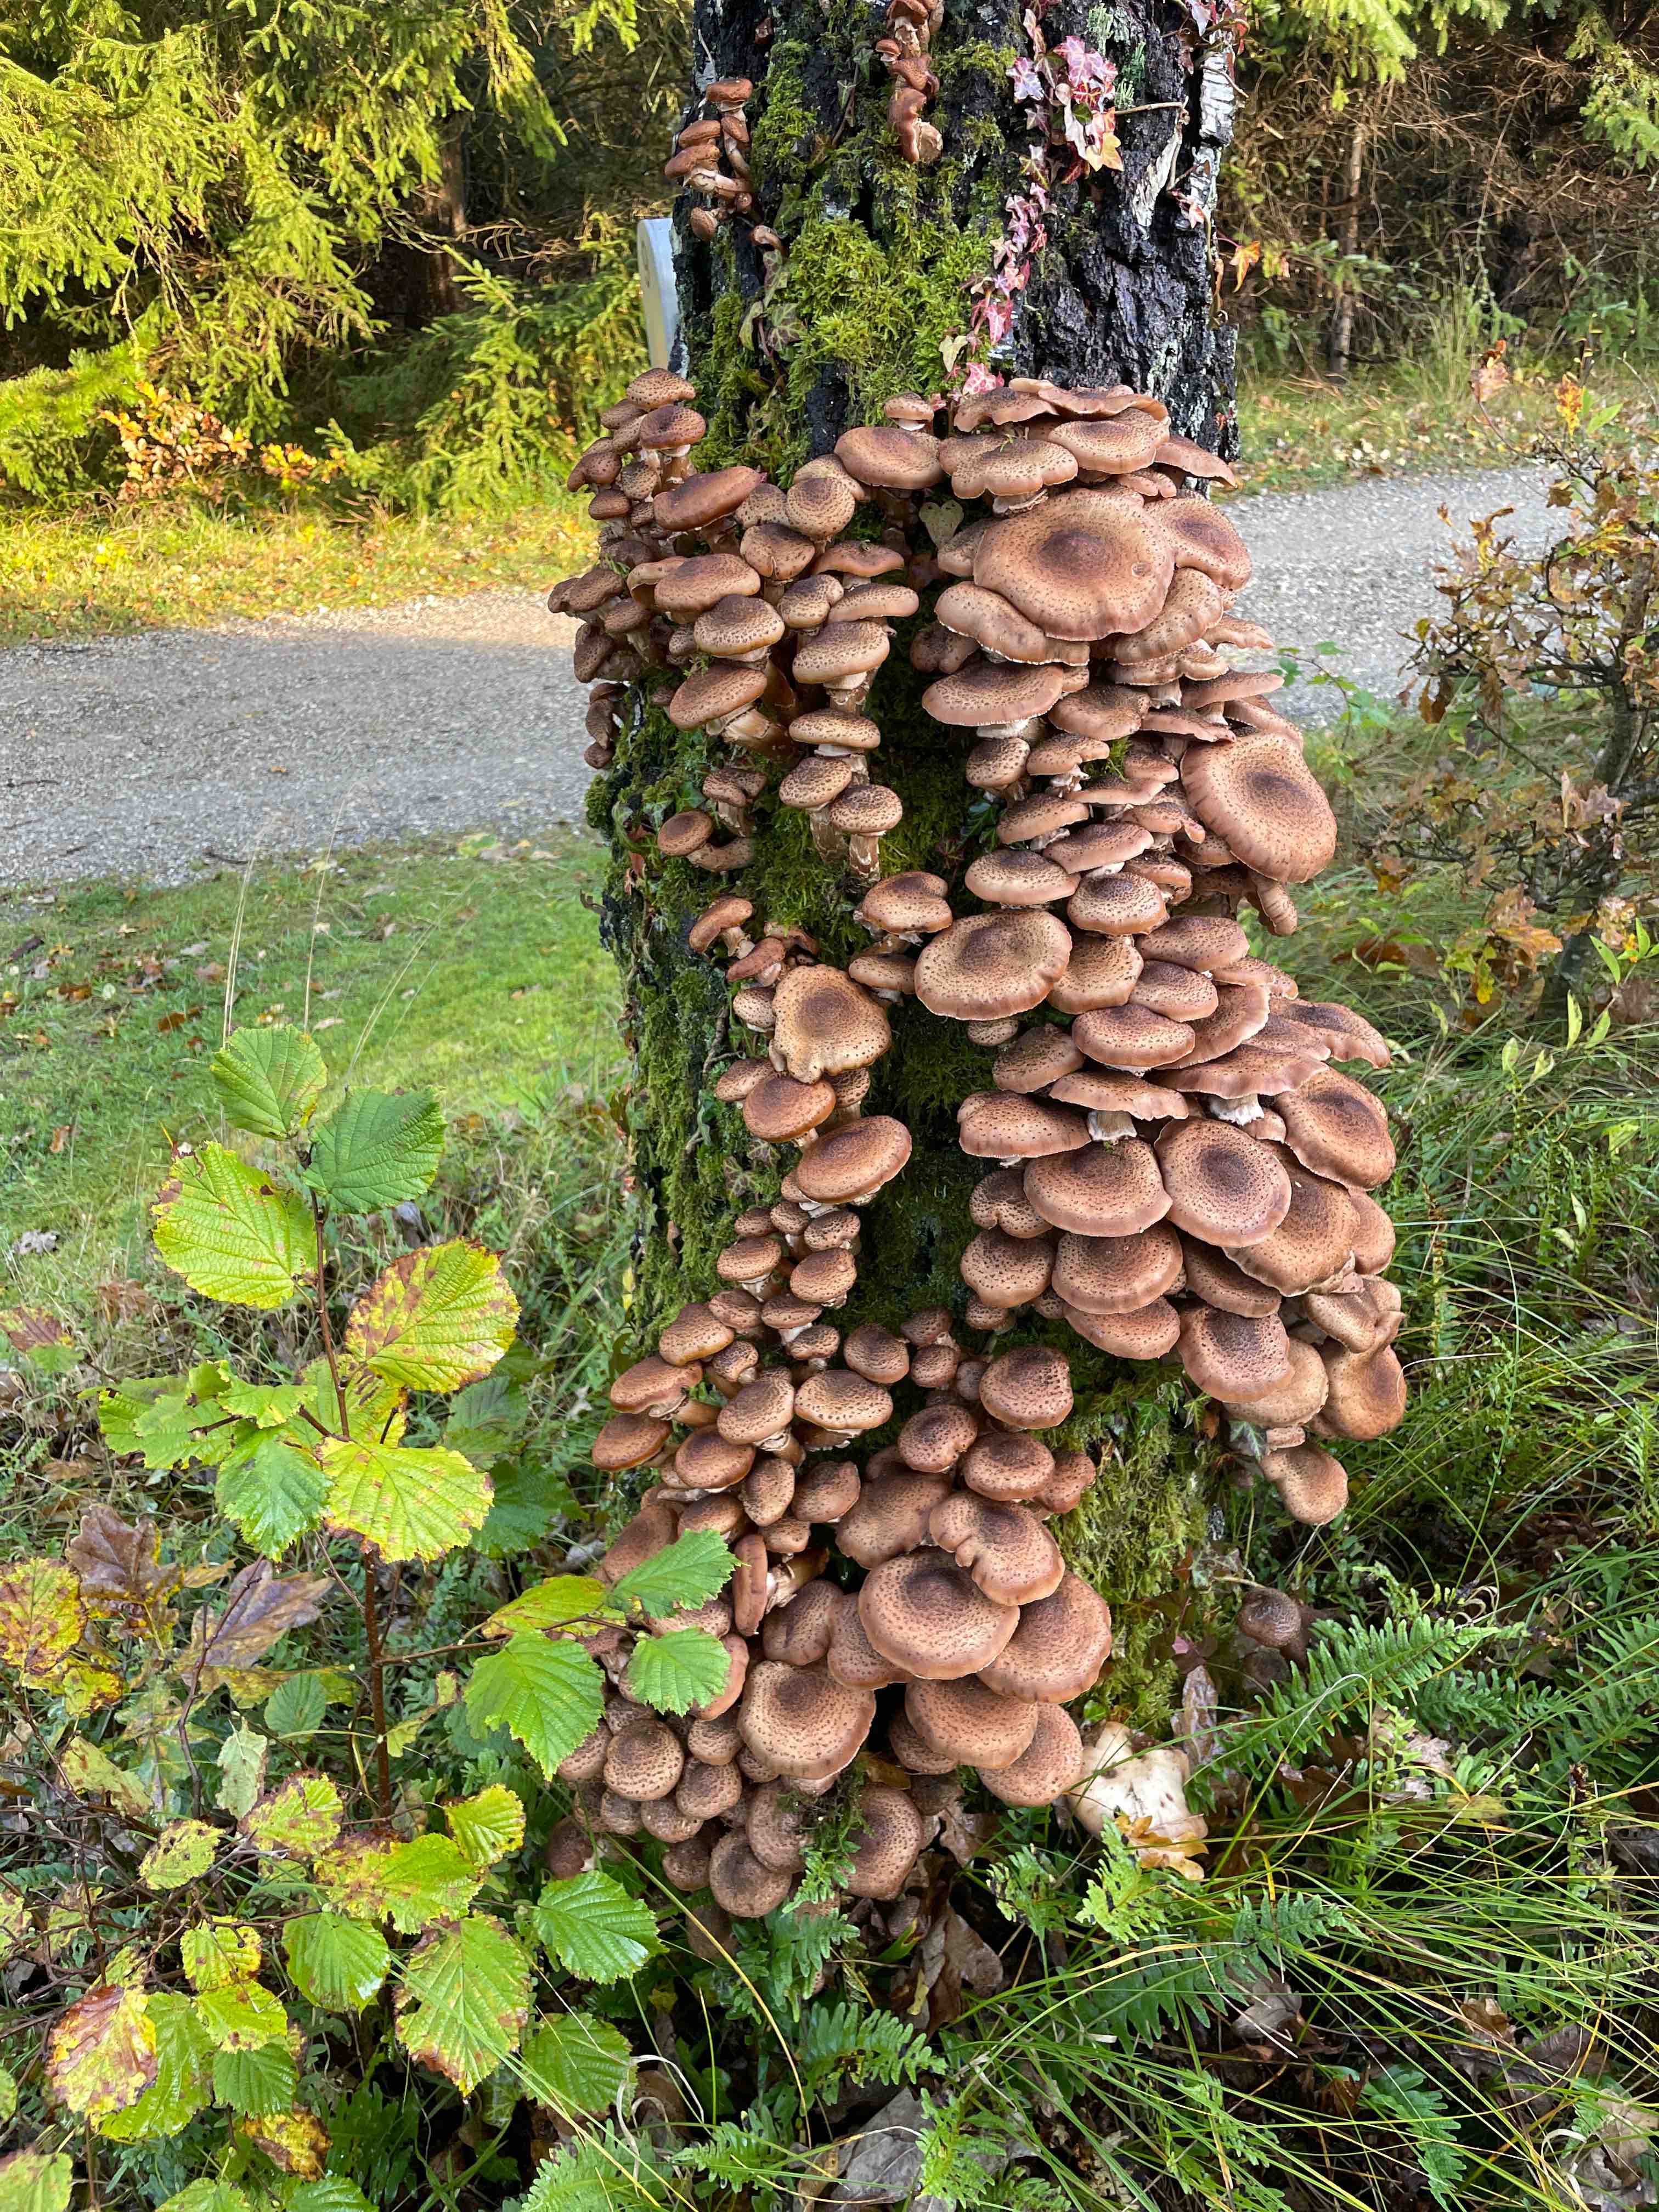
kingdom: Fungi
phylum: Basidiomycota
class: Agaricomycetes
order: Agaricales
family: Physalacriaceae
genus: Armillaria
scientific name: Armillaria ostoyae
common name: mørk honningsvamp
